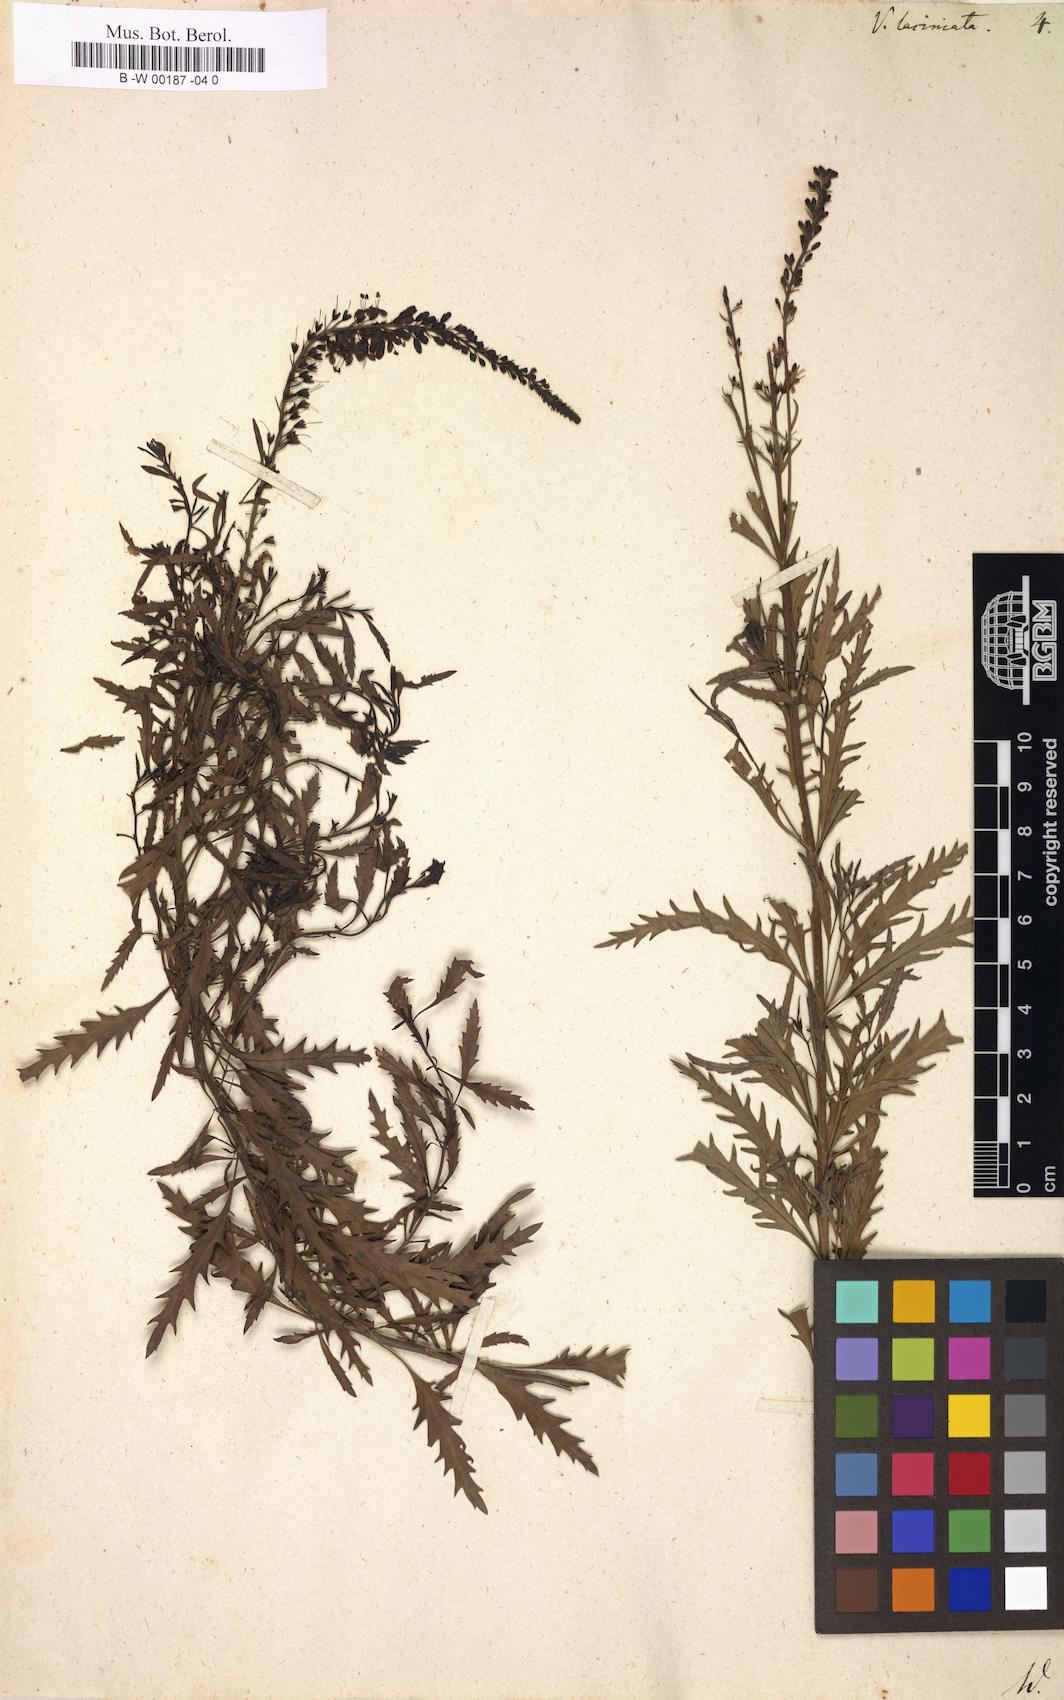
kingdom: Plantae
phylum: Tracheophyta
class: Magnoliopsida
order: Lamiales
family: Plantaginaceae
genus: Veronica
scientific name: Veronica laciniata
